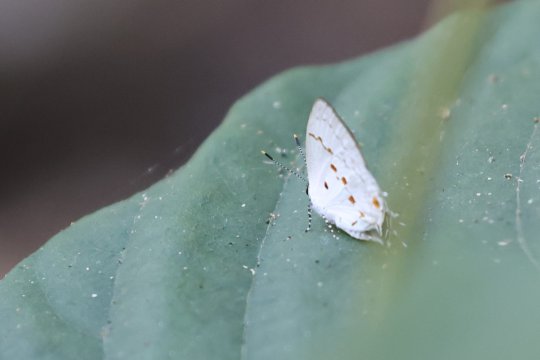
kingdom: Animalia
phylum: Arthropoda
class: Insecta
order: Lepidoptera
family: Lycaenidae
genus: Thecla
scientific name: Thecla celmus
